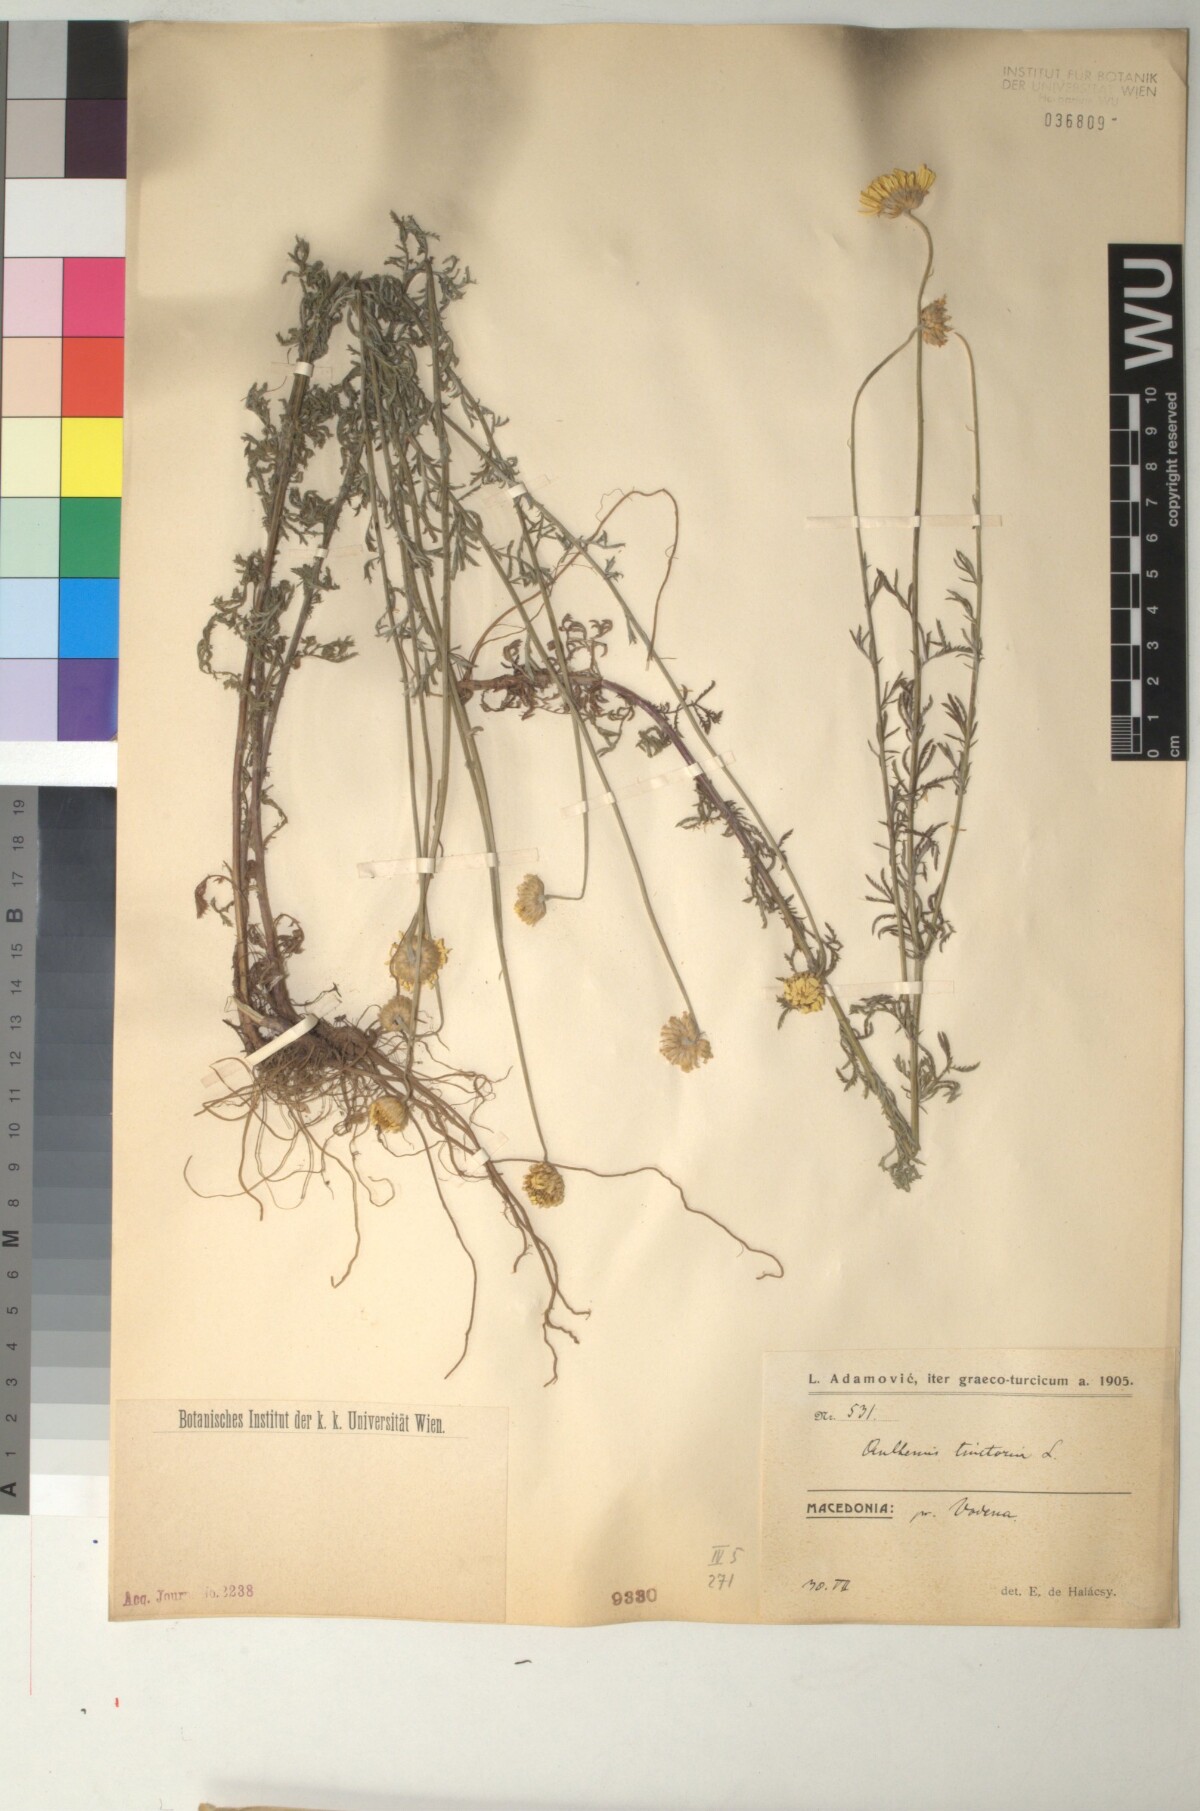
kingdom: Plantae
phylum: Tracheophyta
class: Magnoliopsida
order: Asterales
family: Asteraceae
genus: Cota
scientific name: Cota tinctoria
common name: Golden chamomile
